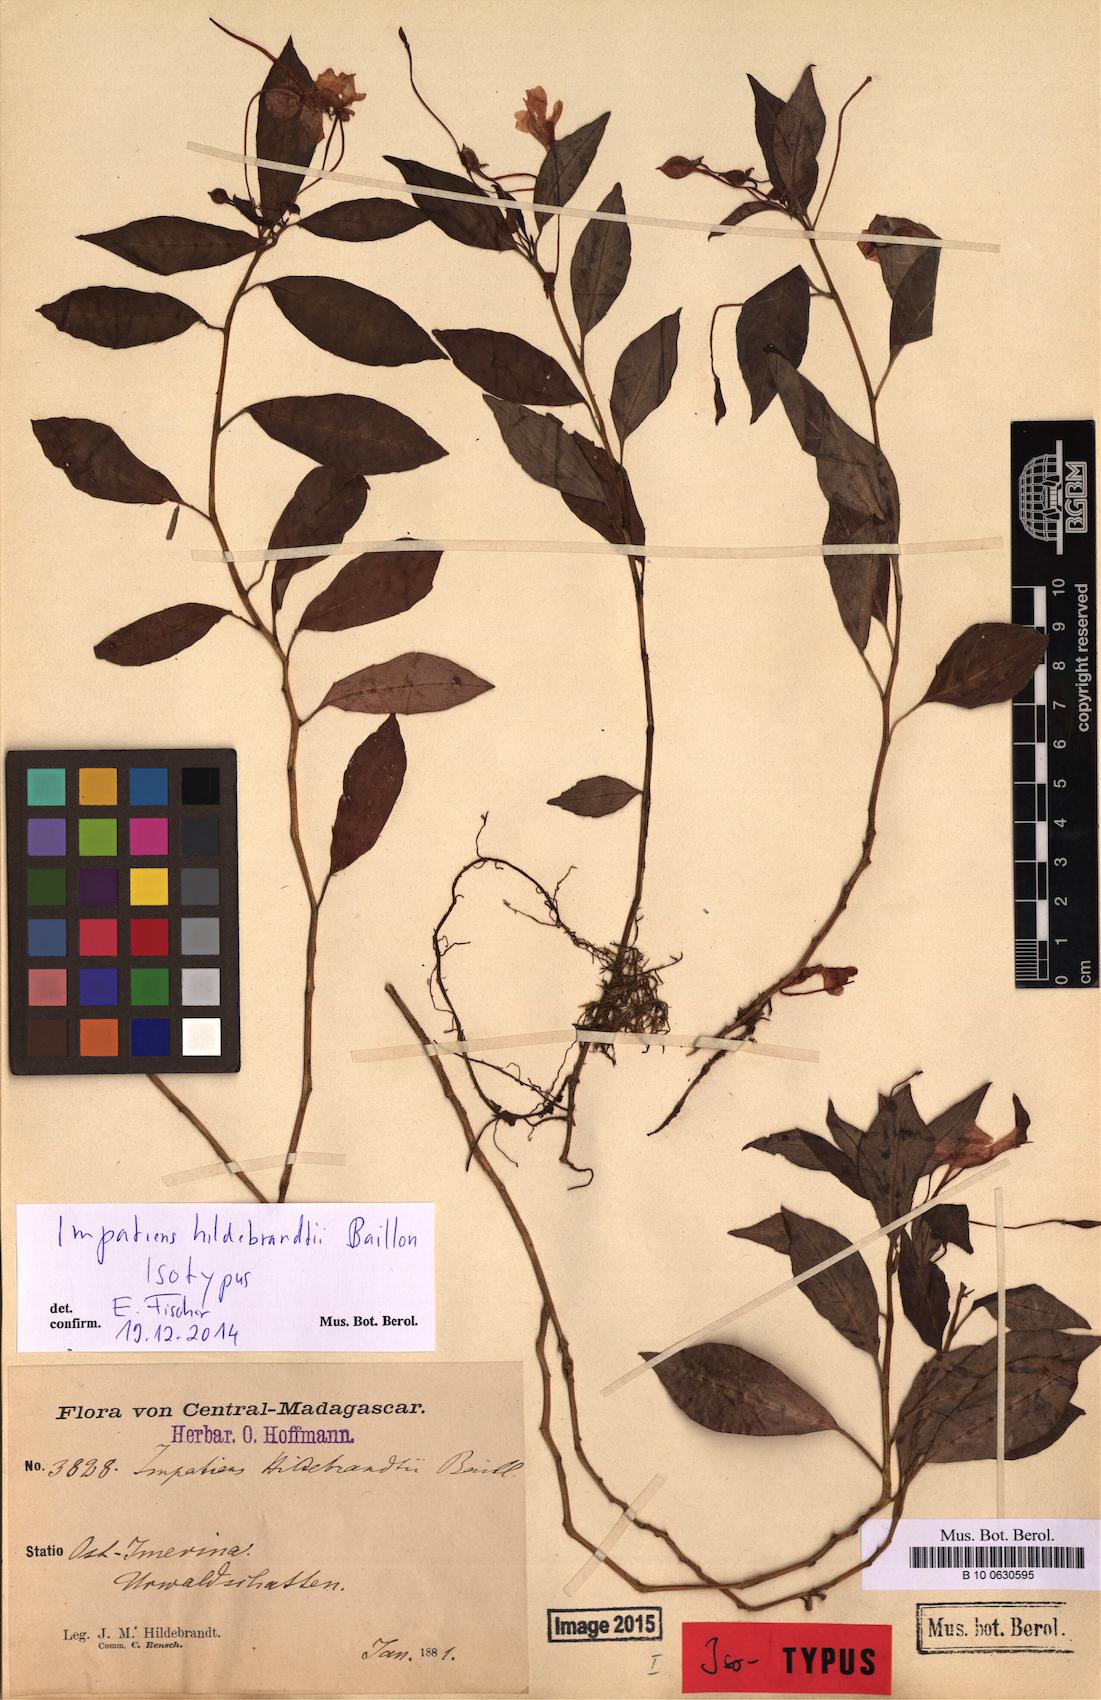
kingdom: Plantae
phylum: Tracheophyta
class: Magnoliopsida
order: Ericales
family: Balsaminaceae
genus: Impatiens
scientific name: Impatiens hildebrandtii
